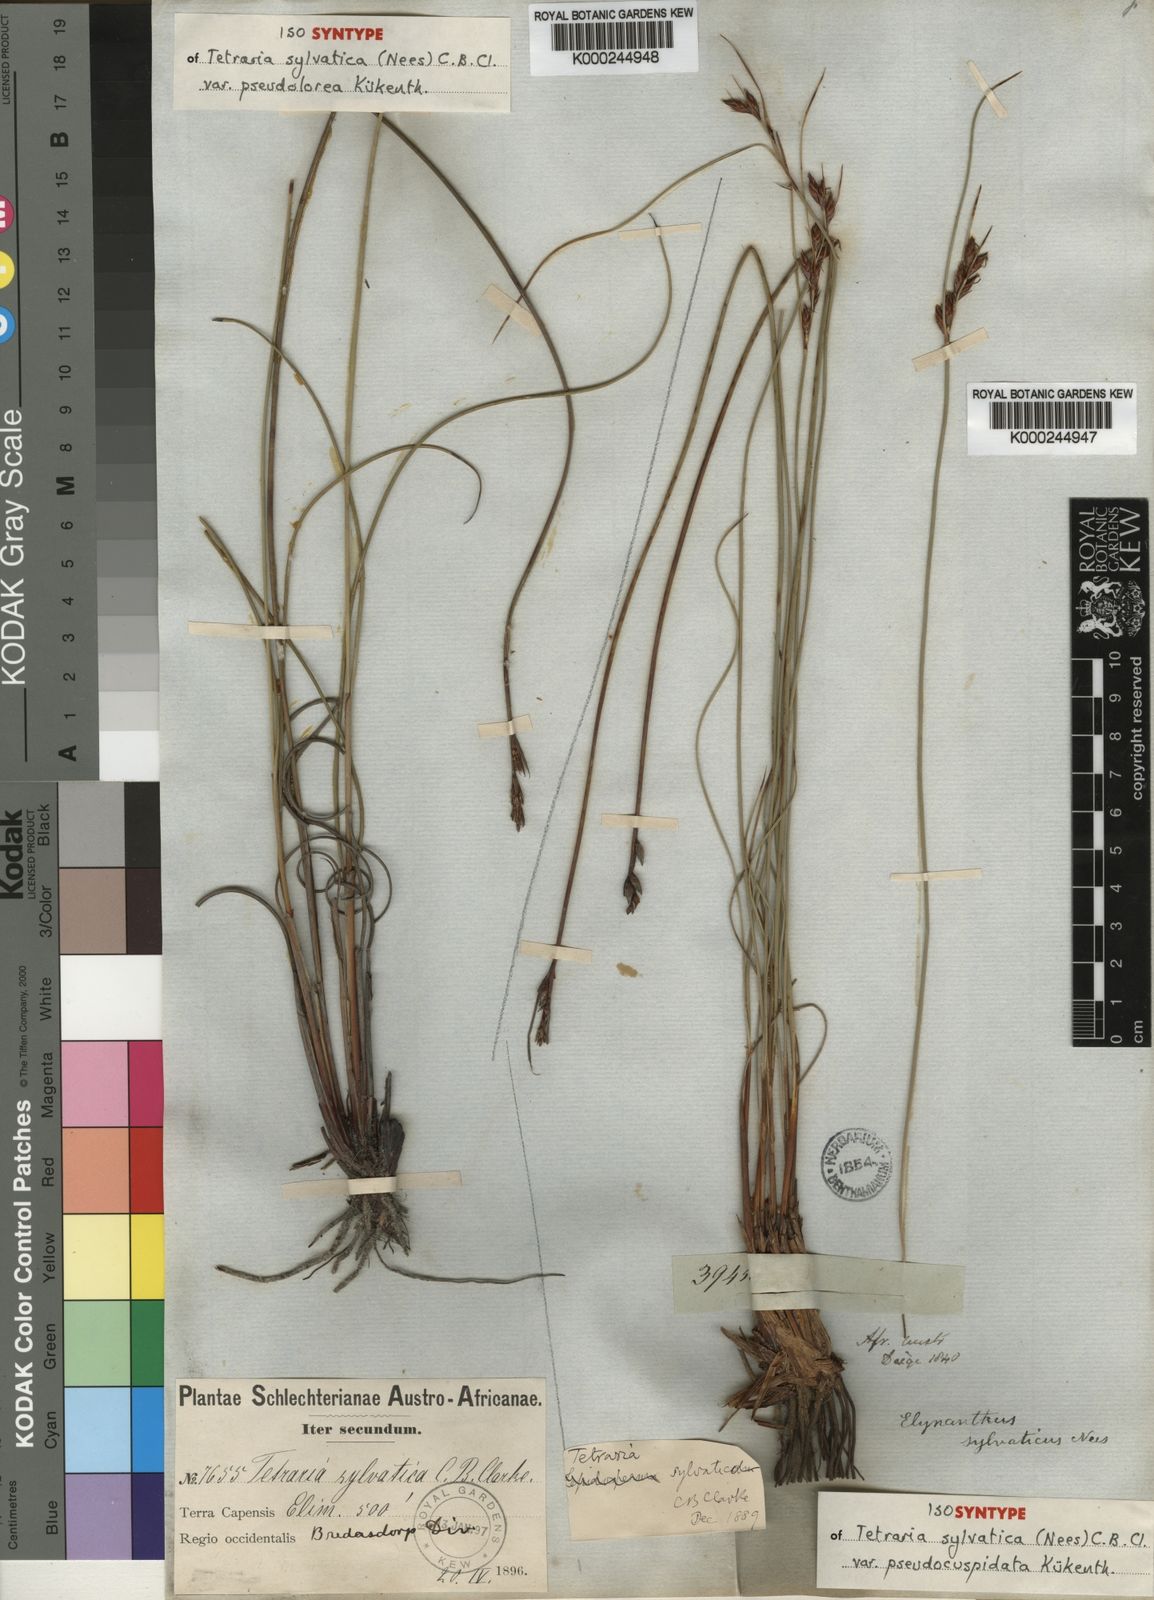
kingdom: Plantae
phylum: Tracheophyta
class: Liliopsida
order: Poales
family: Cyperaceae
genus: Schoenus
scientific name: Schoenus arenicola
